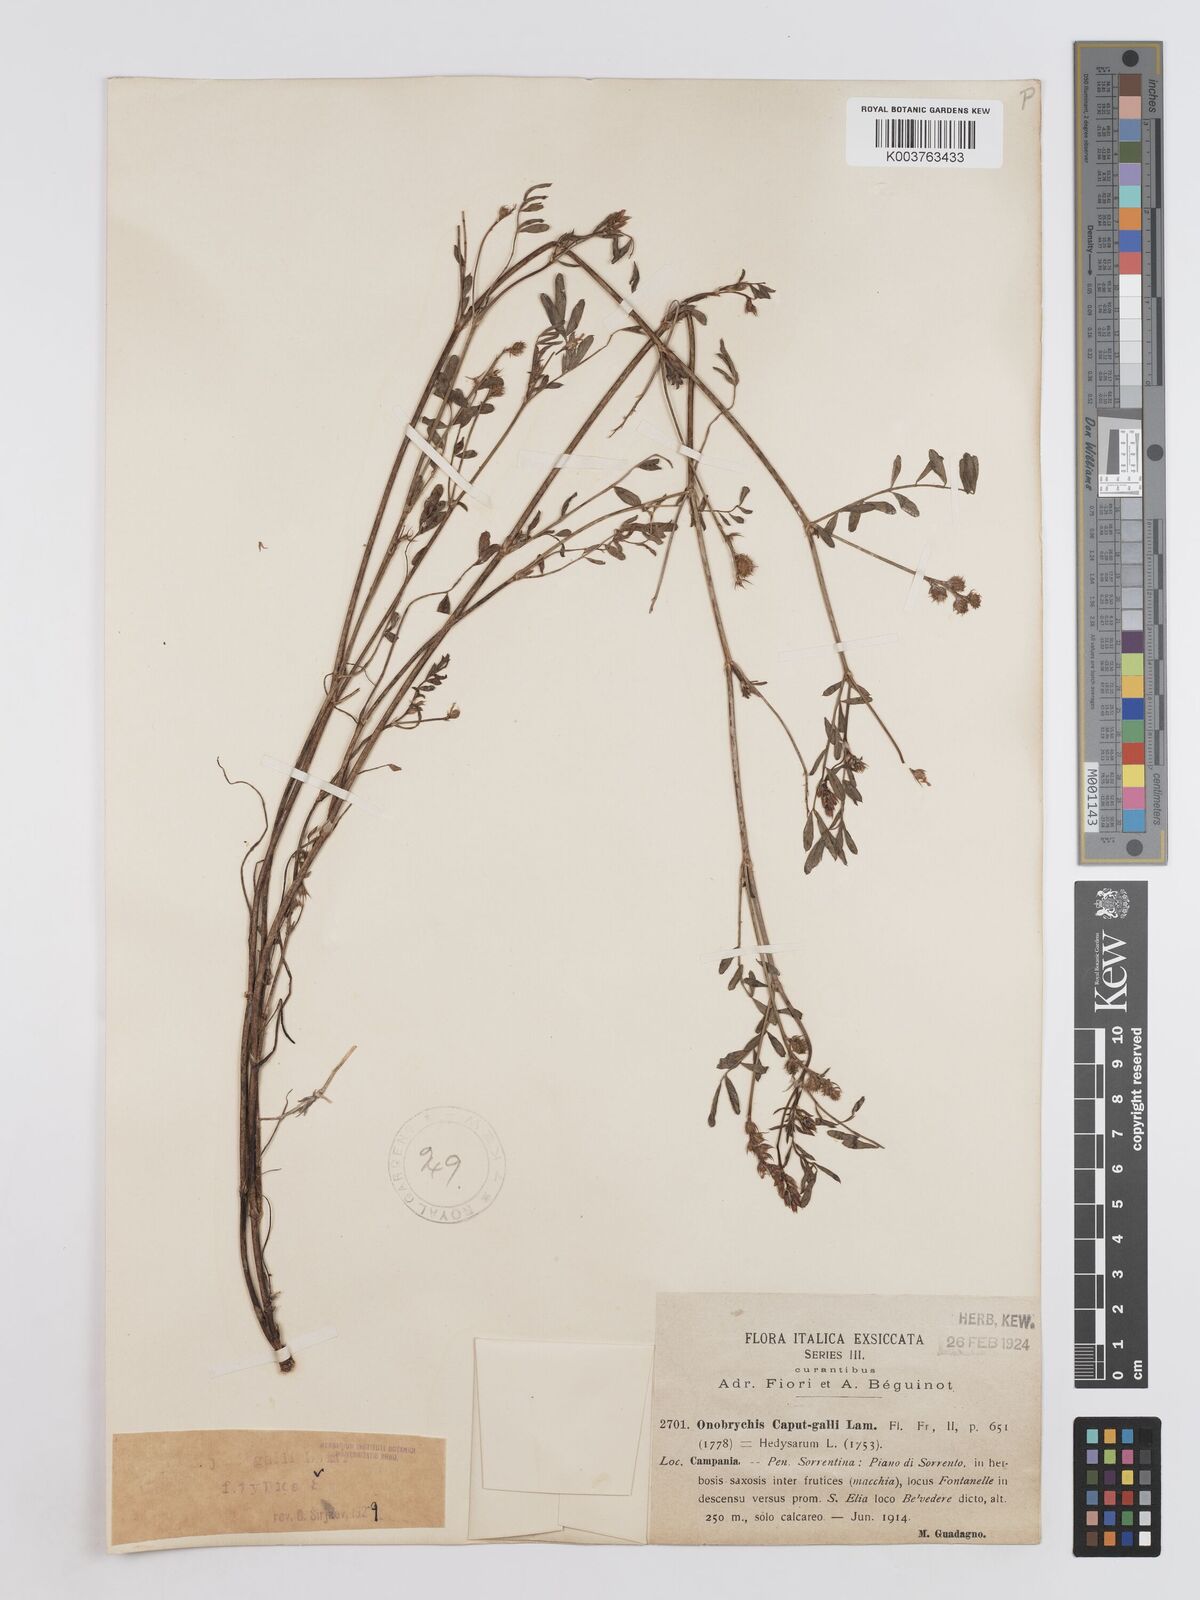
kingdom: Plantae
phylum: Tracheophyta
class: Magnoliopsida
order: Fabales
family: Fabaceae
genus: Onobrychis
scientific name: Onobrychis caput-galli
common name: Cockscomb sainfoin
